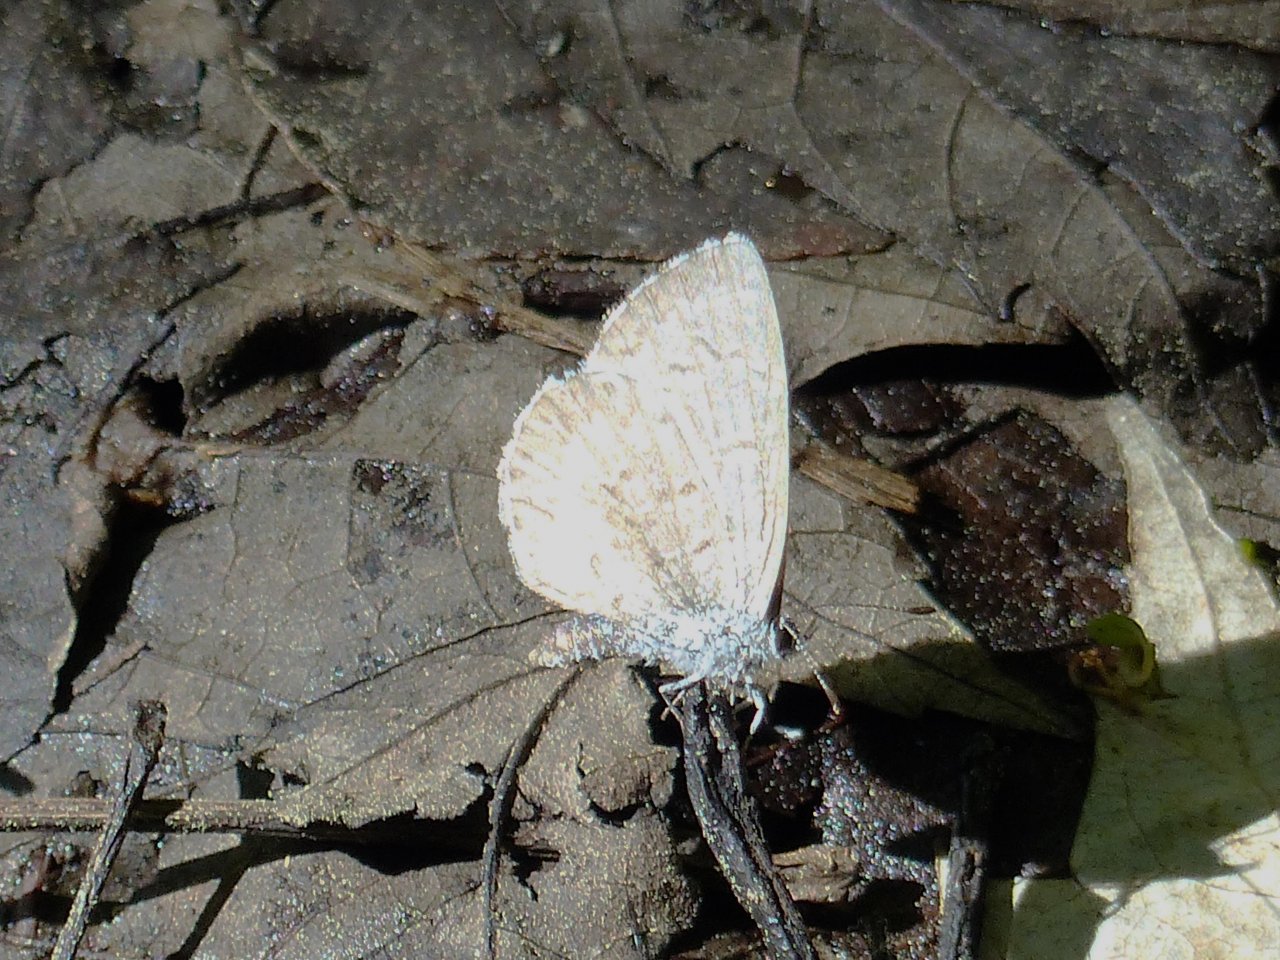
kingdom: Animalia
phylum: Arthropoda
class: Insecta
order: Lepidoptera
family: Lycaenidae
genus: Celastrina
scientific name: Celastrina lucia
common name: Northern Spring Azure
